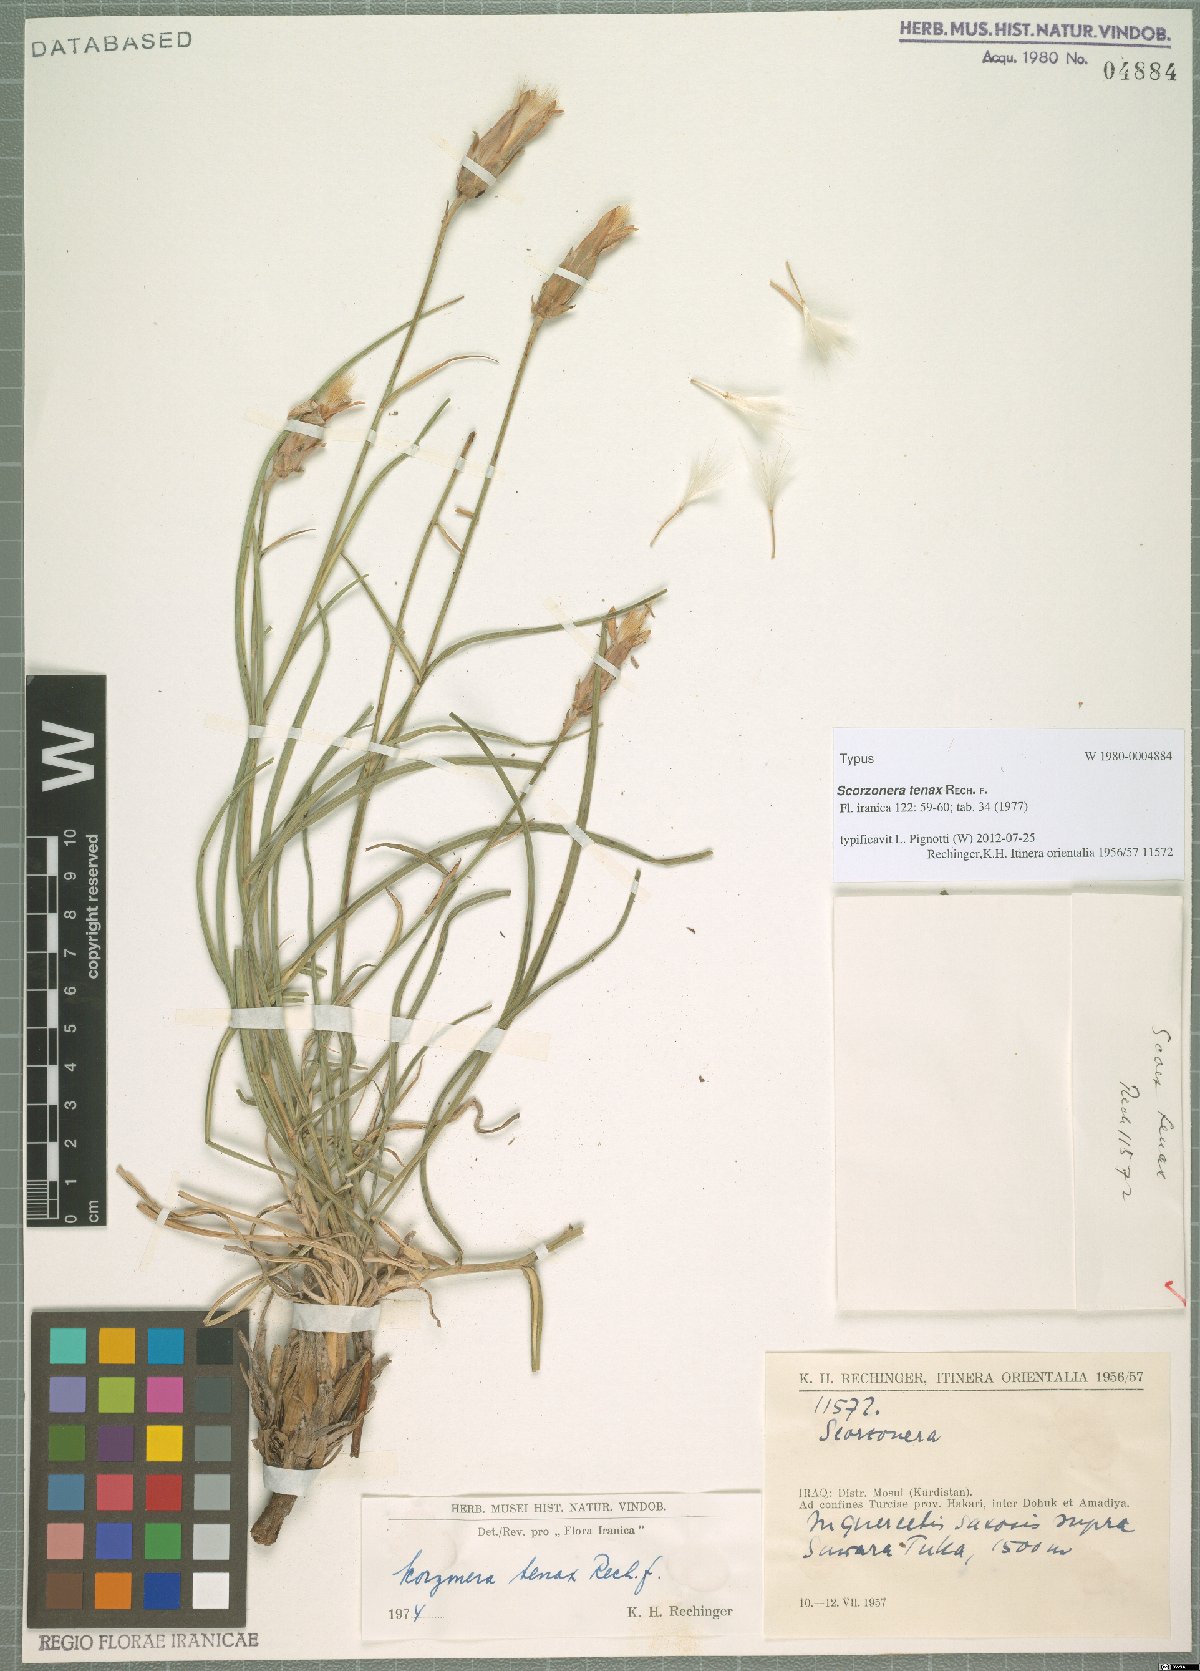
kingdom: Plantae
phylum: Tracheophyta
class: Magnoliopsida
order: Asterales
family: Asteraceae
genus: Candollea
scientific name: Candollea davisii
